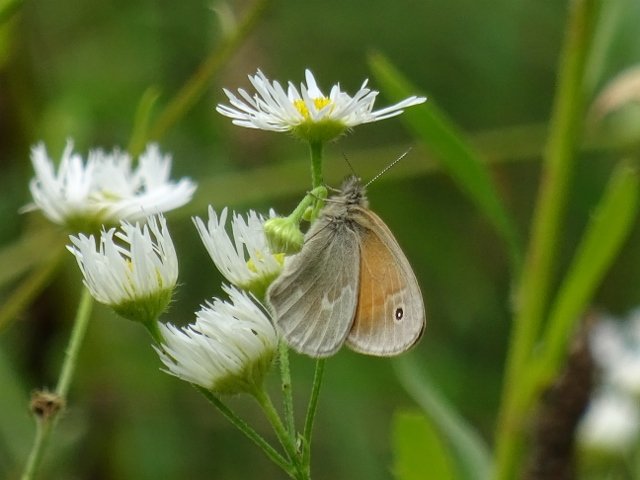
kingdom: Animalia
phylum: Arthropoda
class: Insecta
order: Lepidoptera
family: Nymphalidae
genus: Coenonympha
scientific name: Coenonympha tullia
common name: Large Heath
